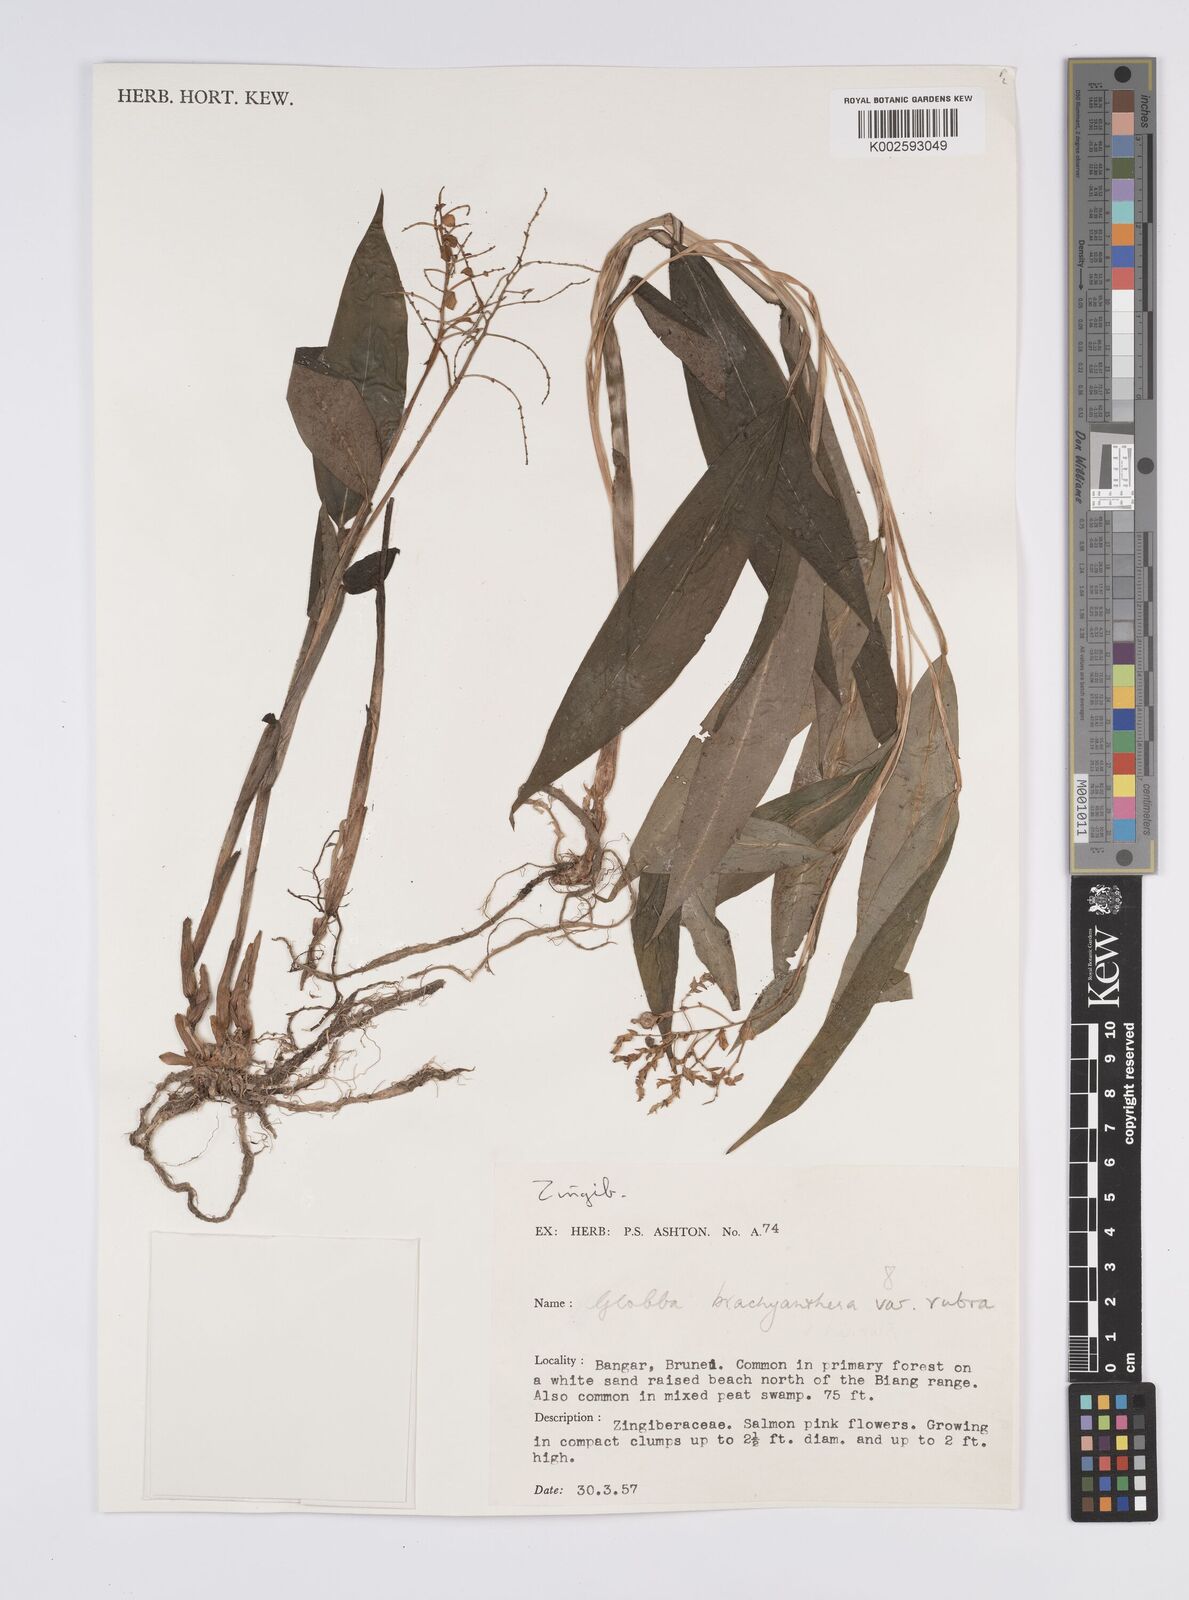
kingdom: Plantae
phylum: Tracheophyta
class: Liliopsida
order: Zingiberales
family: Zingiberaceae
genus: Globba
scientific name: Globba brachyanthera
